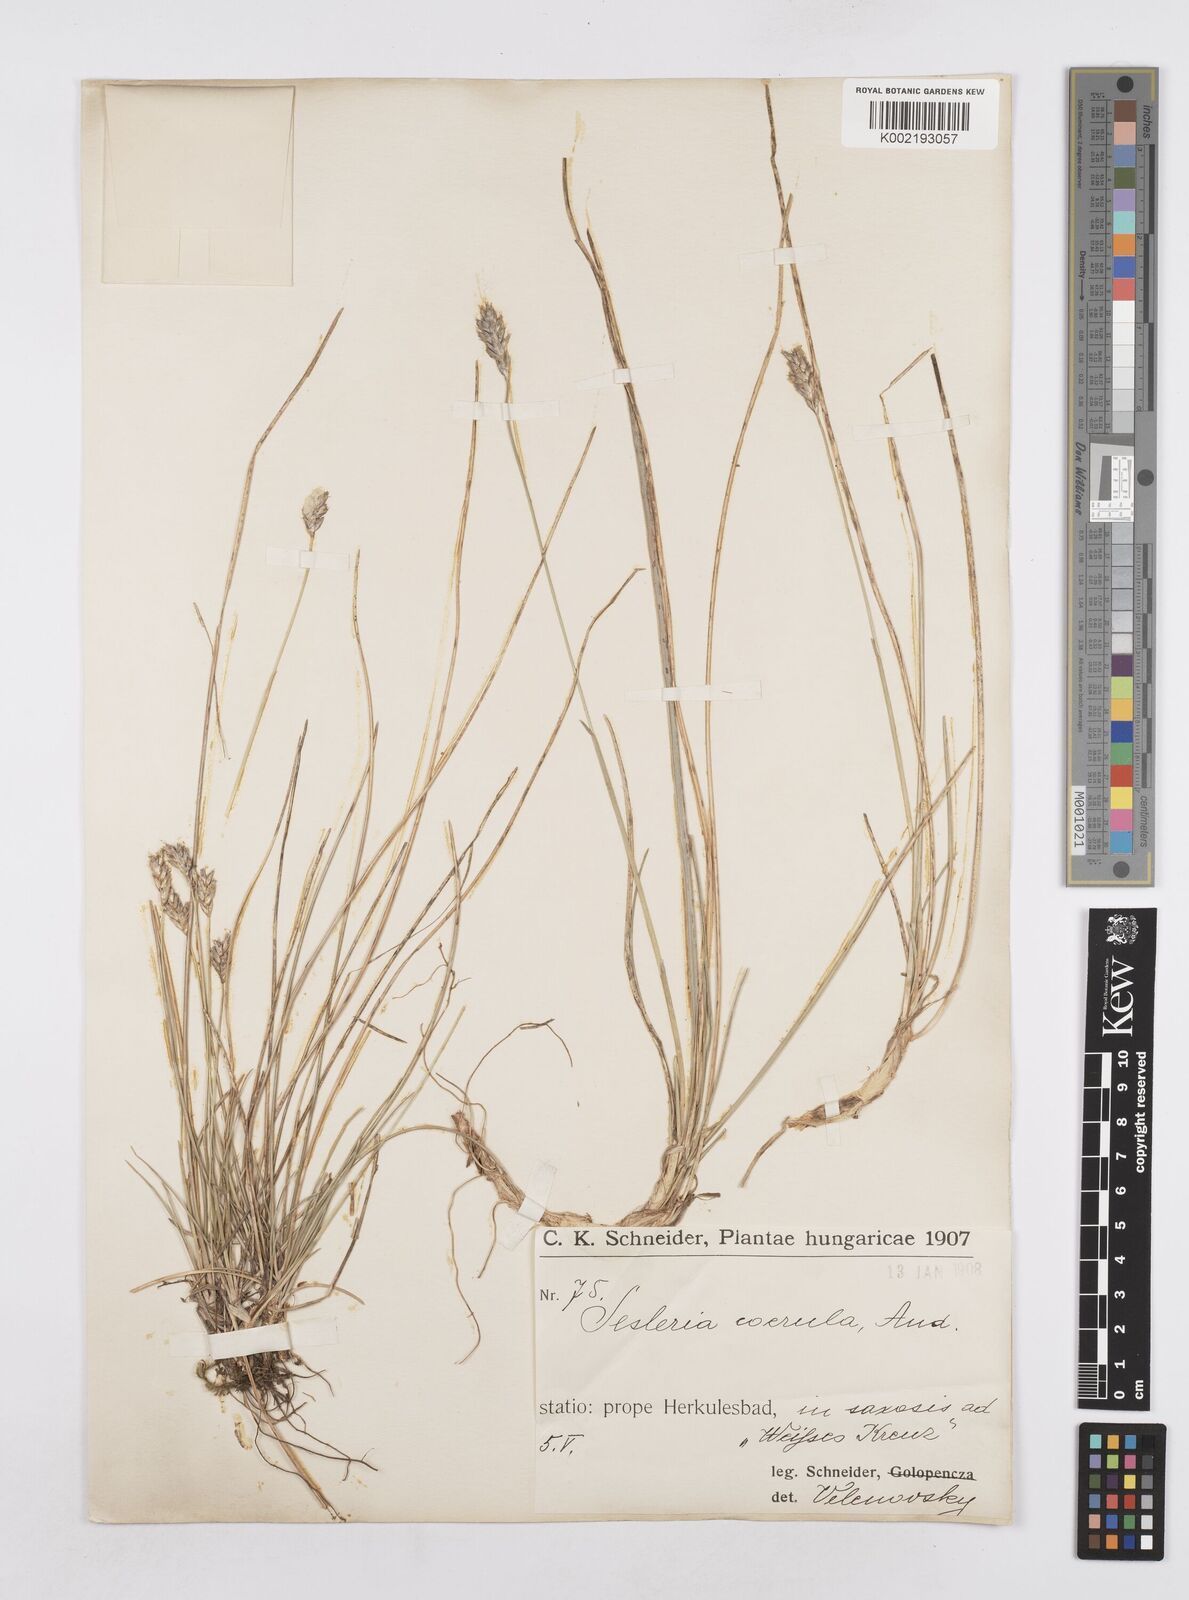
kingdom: Plantae
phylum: Tracheophyta
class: Liliopsida
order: Poales
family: Poaceae
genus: Sesleria
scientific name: Sesleria caerulea
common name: Blue moor-grass
